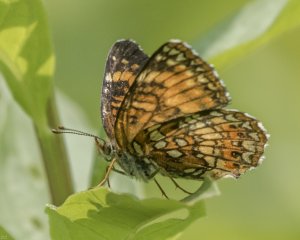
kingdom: Animalia
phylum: Arthropoda
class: Insecta
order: Lepidoptera
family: Nymphalidae
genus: Chlosyne
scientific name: Chlosyne harrisii
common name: Harris's Checkerspot
